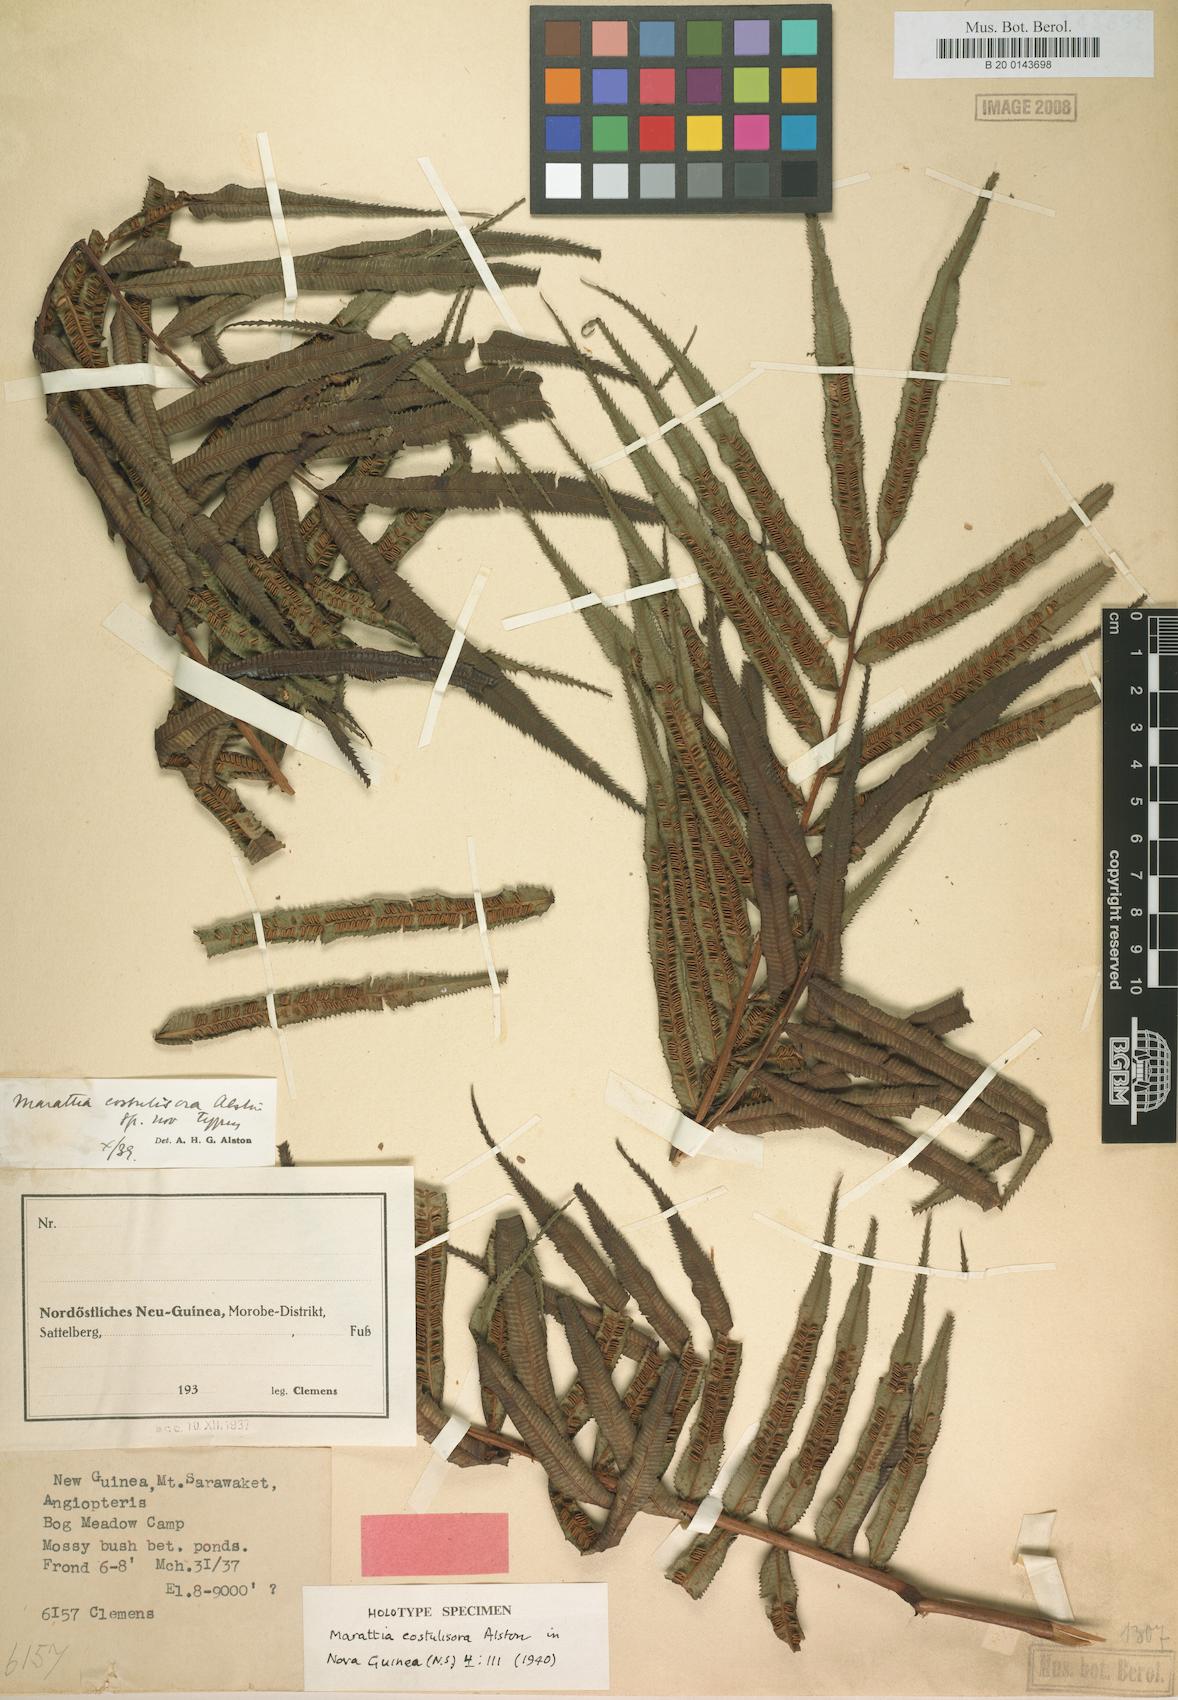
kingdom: Plantae
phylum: Tracheophyta
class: Polypodiopsida
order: Marattiales
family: Marattiaceae
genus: Ptisana
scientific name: Ptisana costulisora
